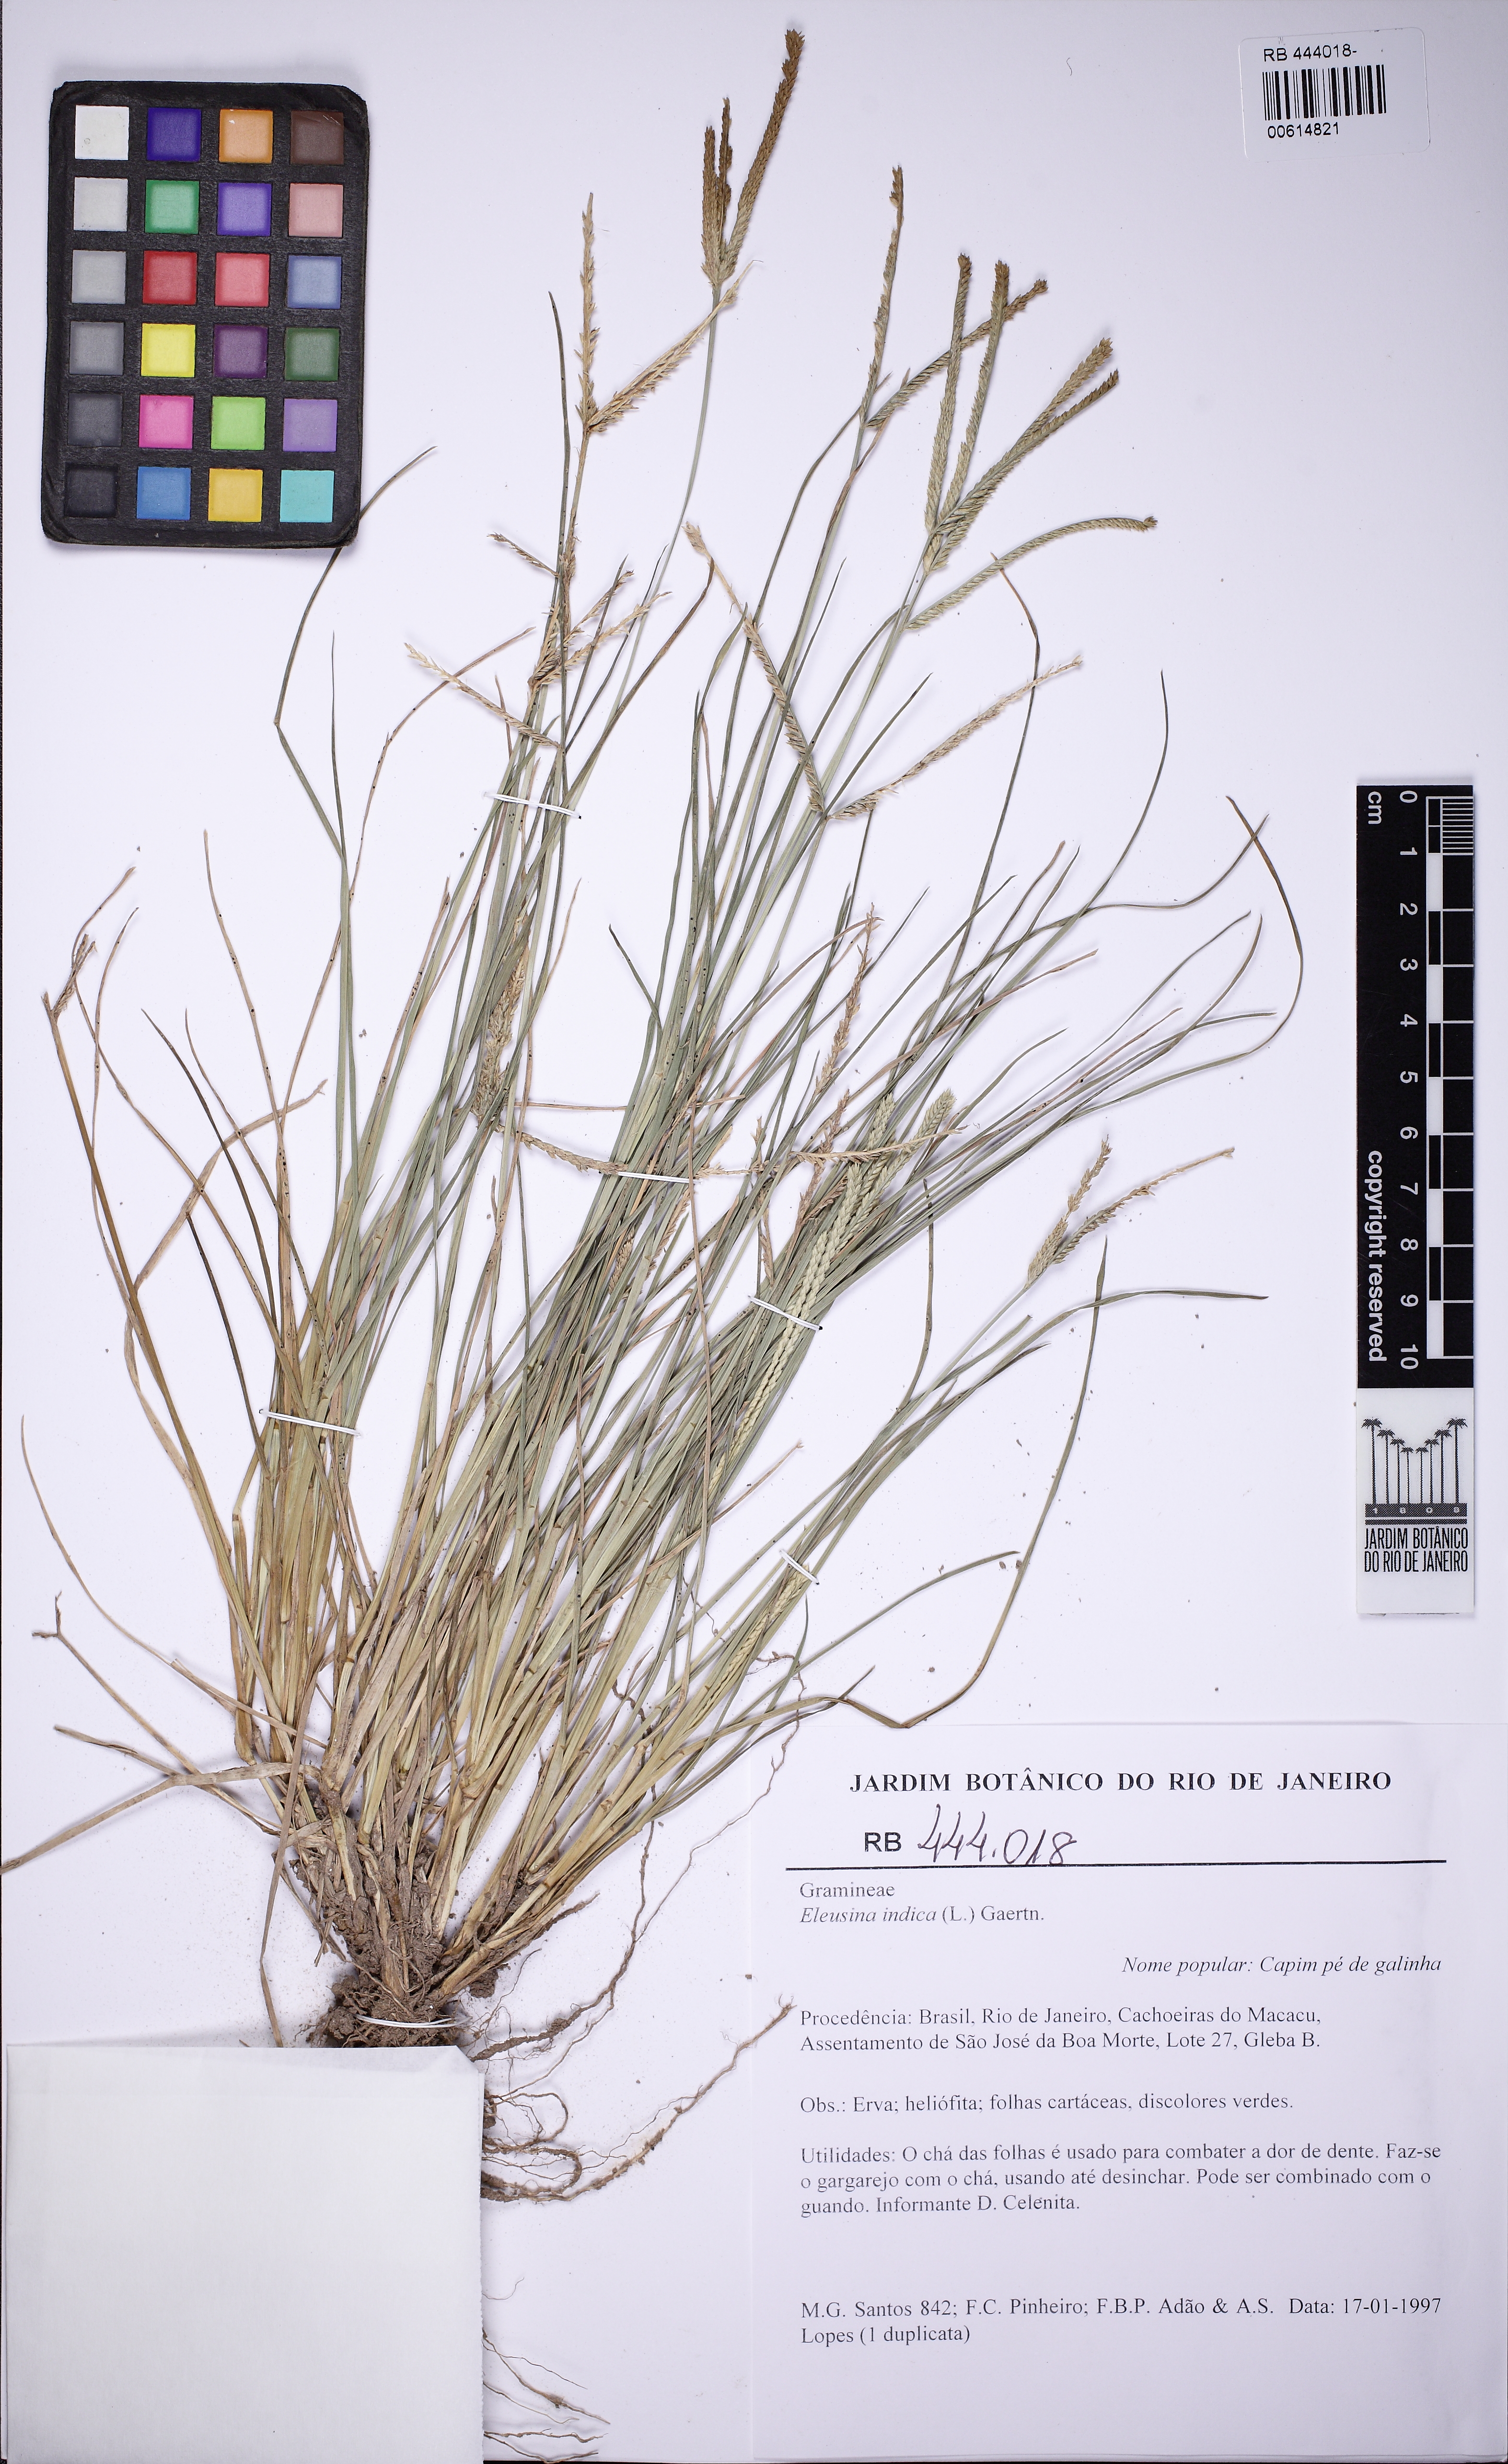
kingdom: Plantae
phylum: Tracheophyta
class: Liliopsida
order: Poales
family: Poaceae
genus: Eleusine
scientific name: Eleusine indica
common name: Yard-grass
